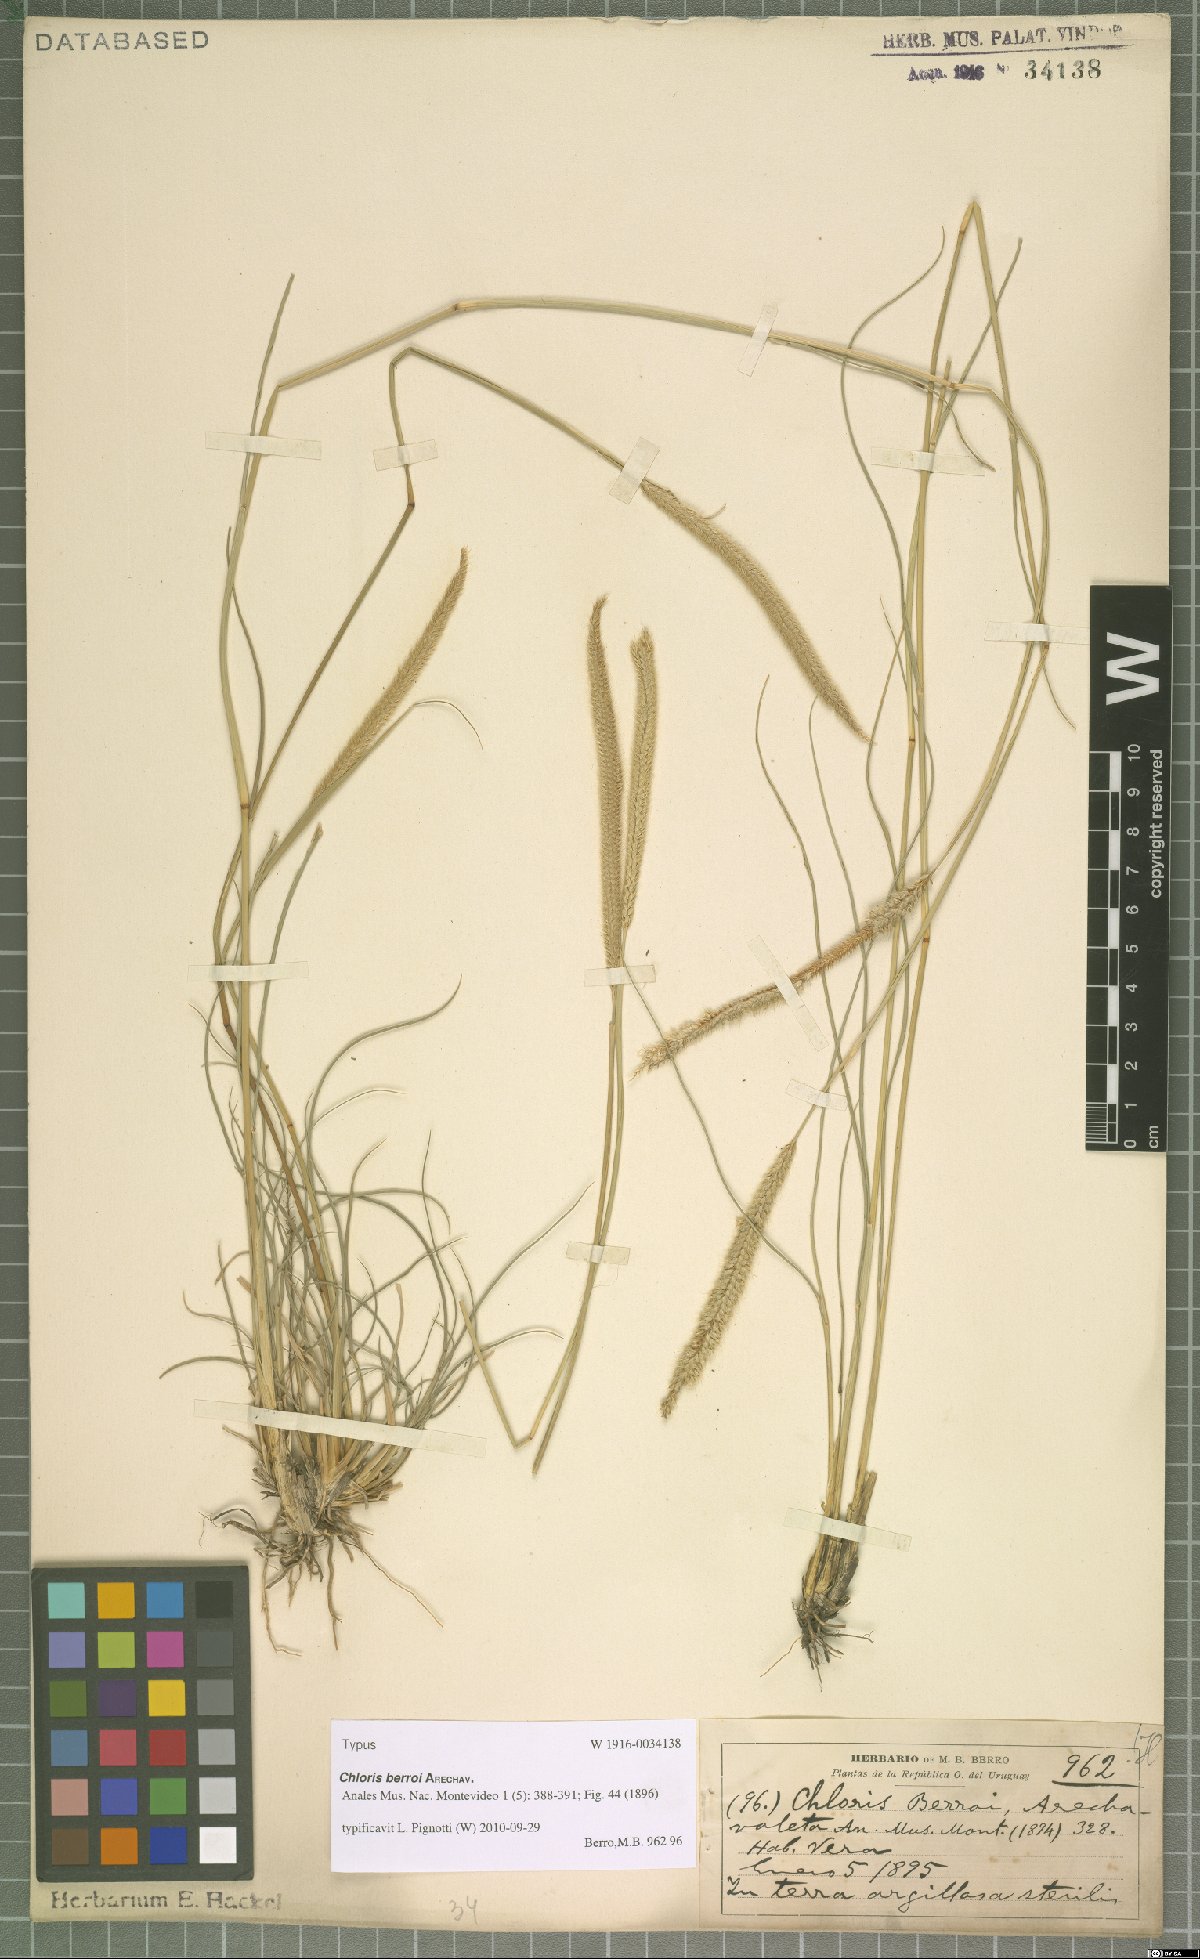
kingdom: Plantae
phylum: Tracheophyta
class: Liliopsida
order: Poales
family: Poaceae
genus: Stapfochloa
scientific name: Stapfochloa berroi
